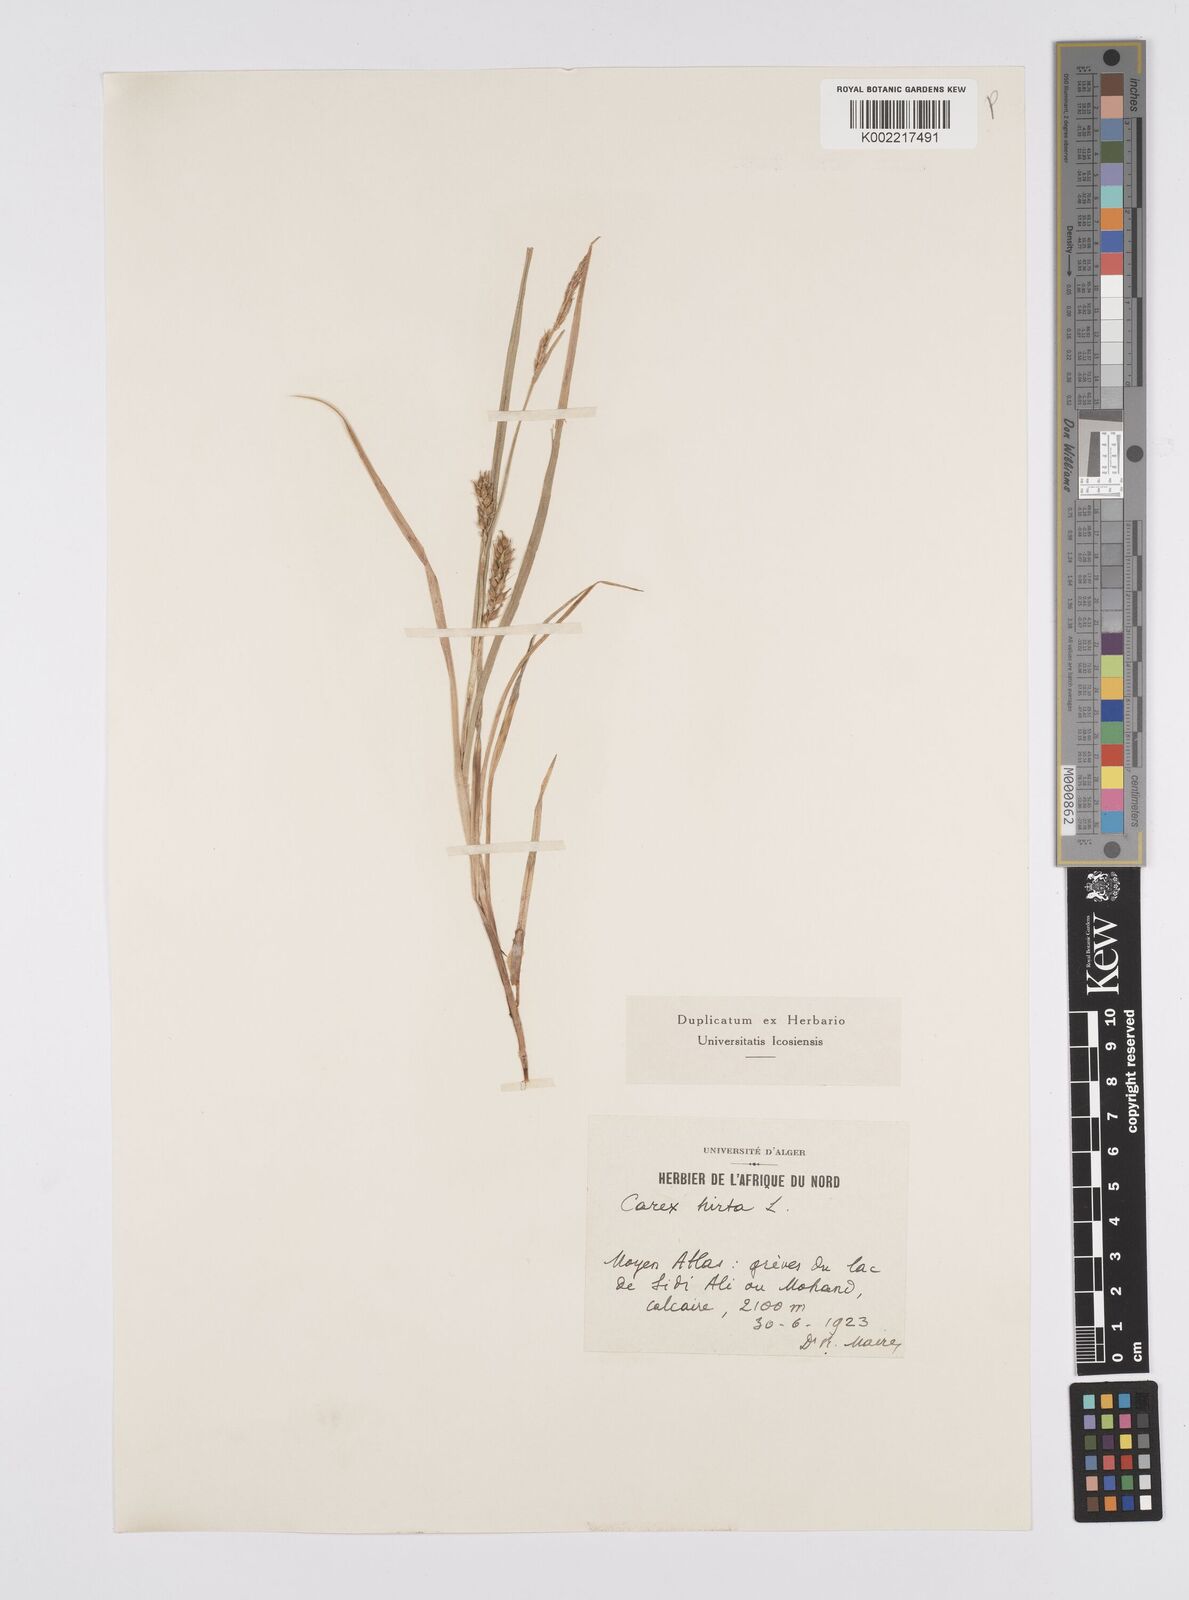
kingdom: Plantae
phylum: Tracheophyta
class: Liliopsida
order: Poales
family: Cyperaceae
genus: Carex
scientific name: Carex hirta
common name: Hairy sedge
